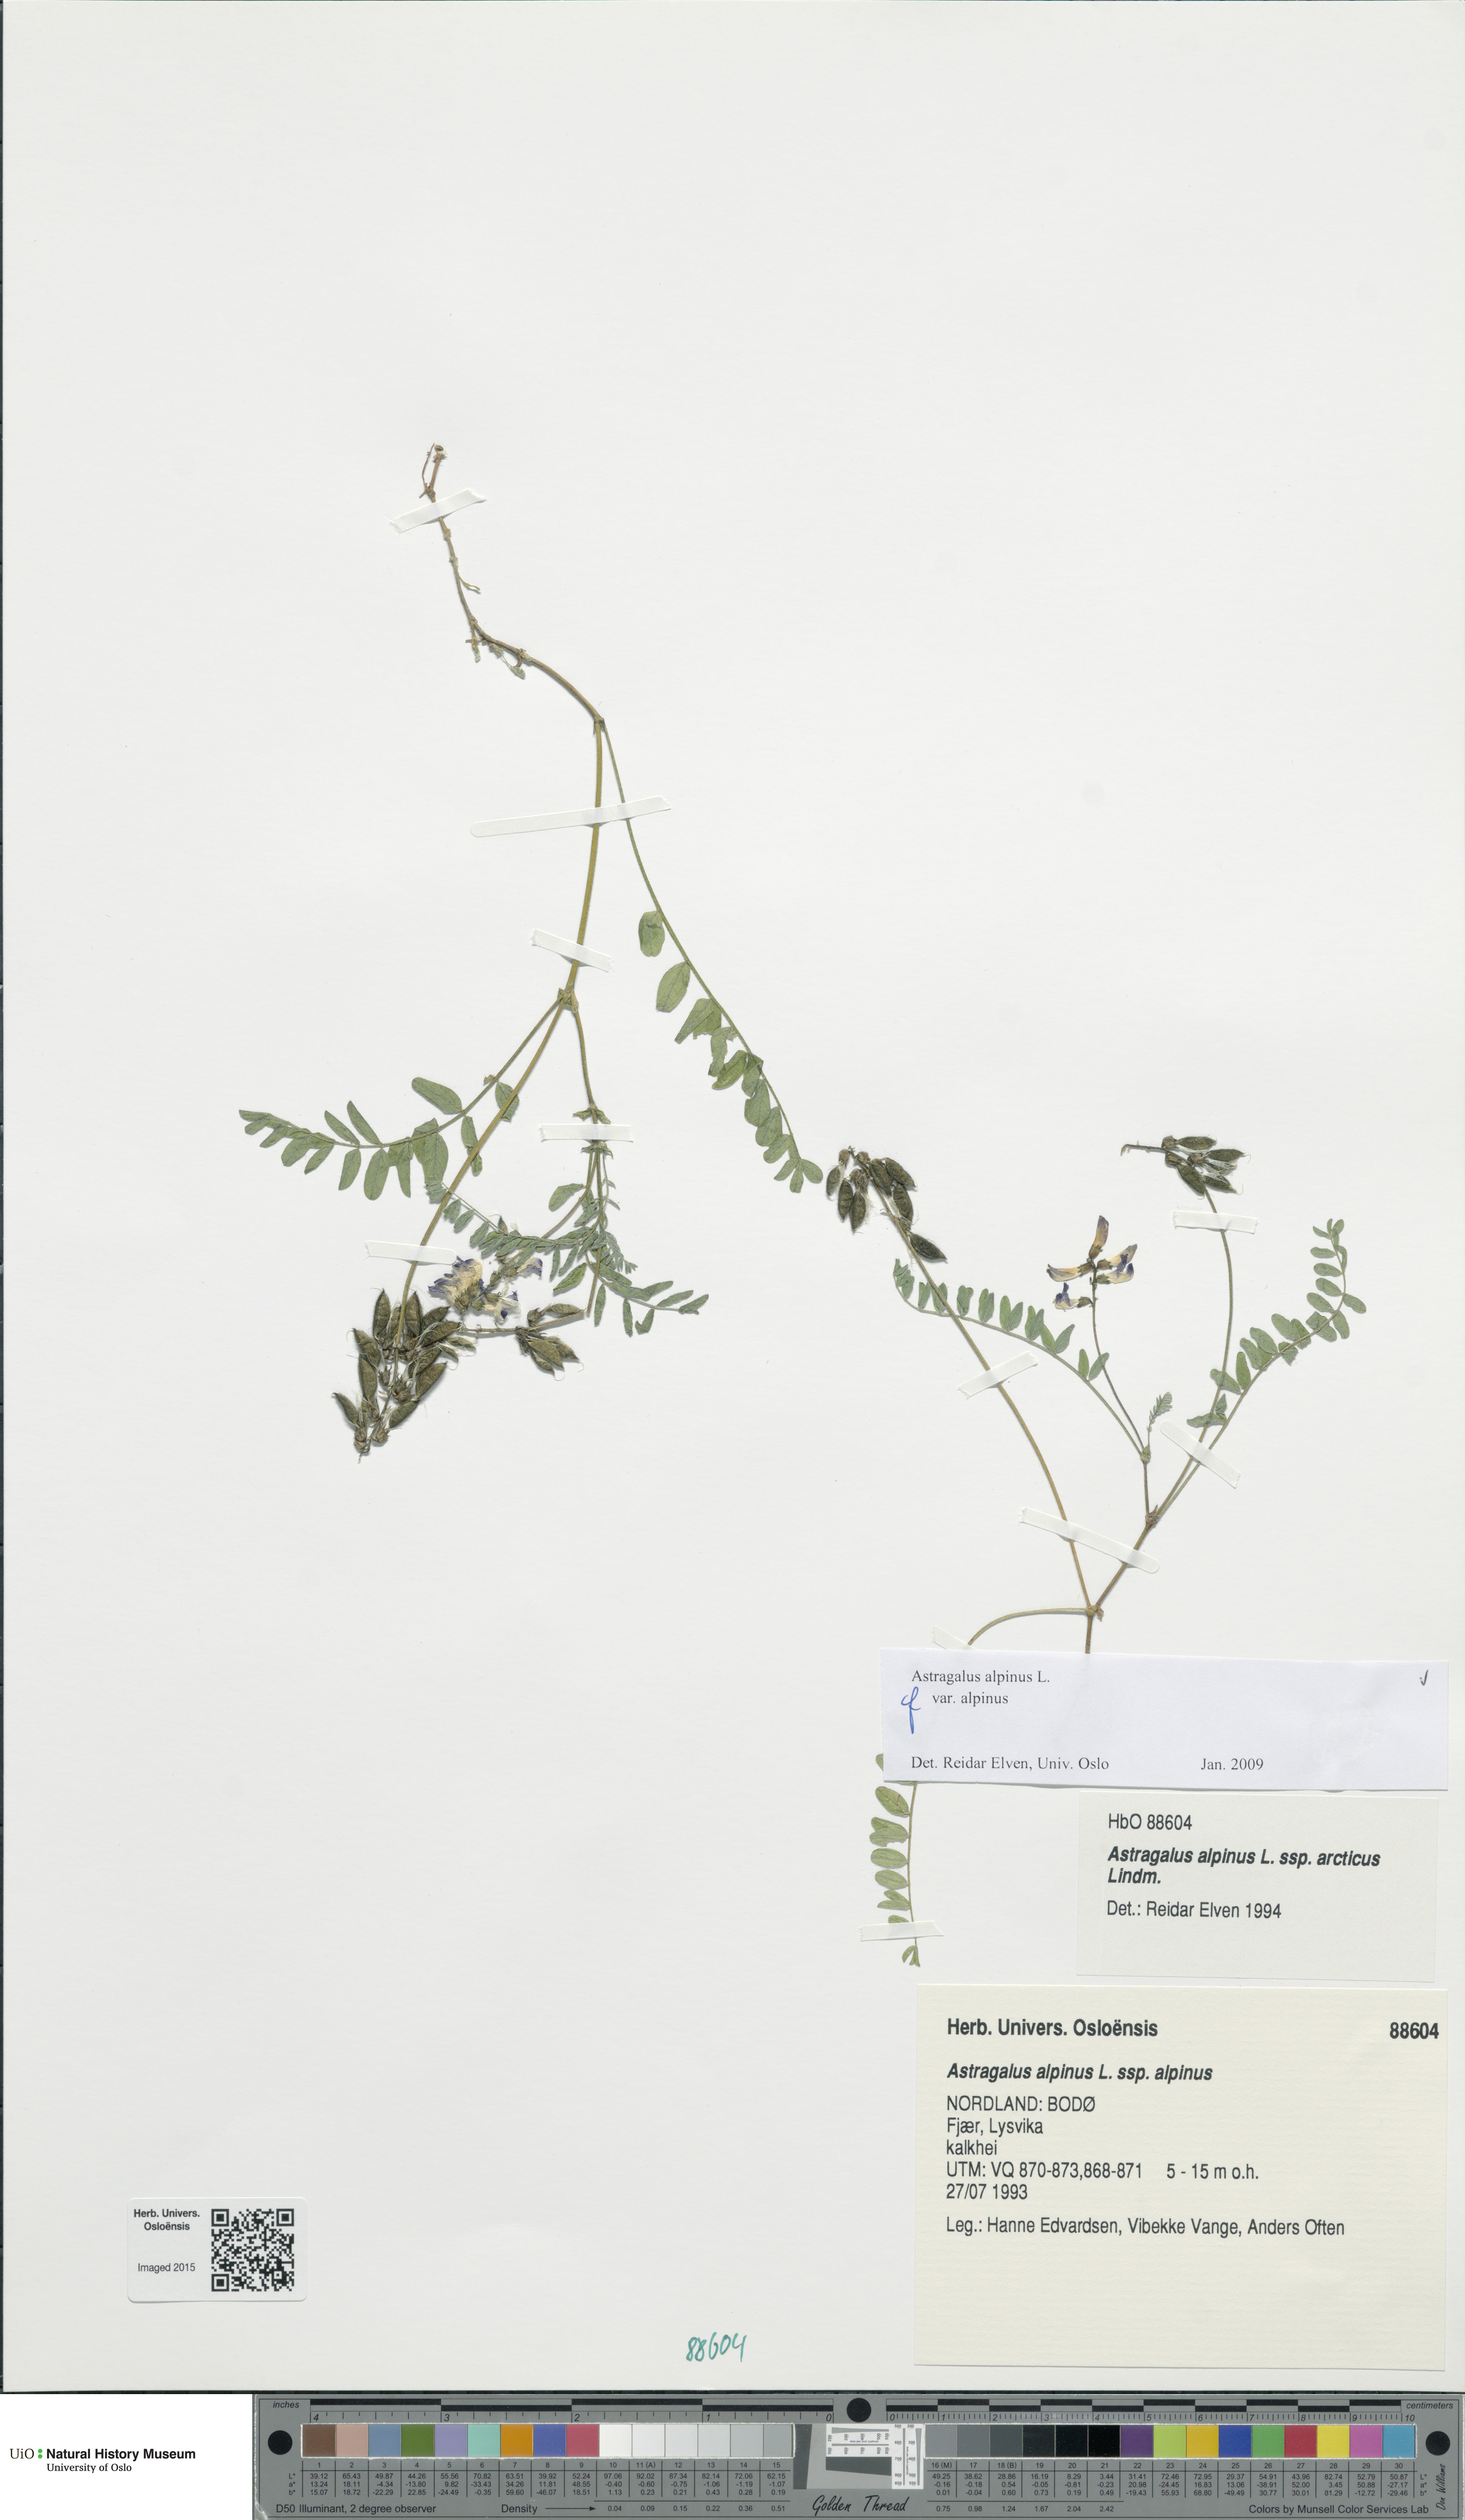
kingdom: Plantae
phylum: Tracheophyta
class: Magnoliopsida
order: Fabales
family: Fabaceae
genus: Astragalus
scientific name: Astragalus alpinus
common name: Alpine milk-vetch
